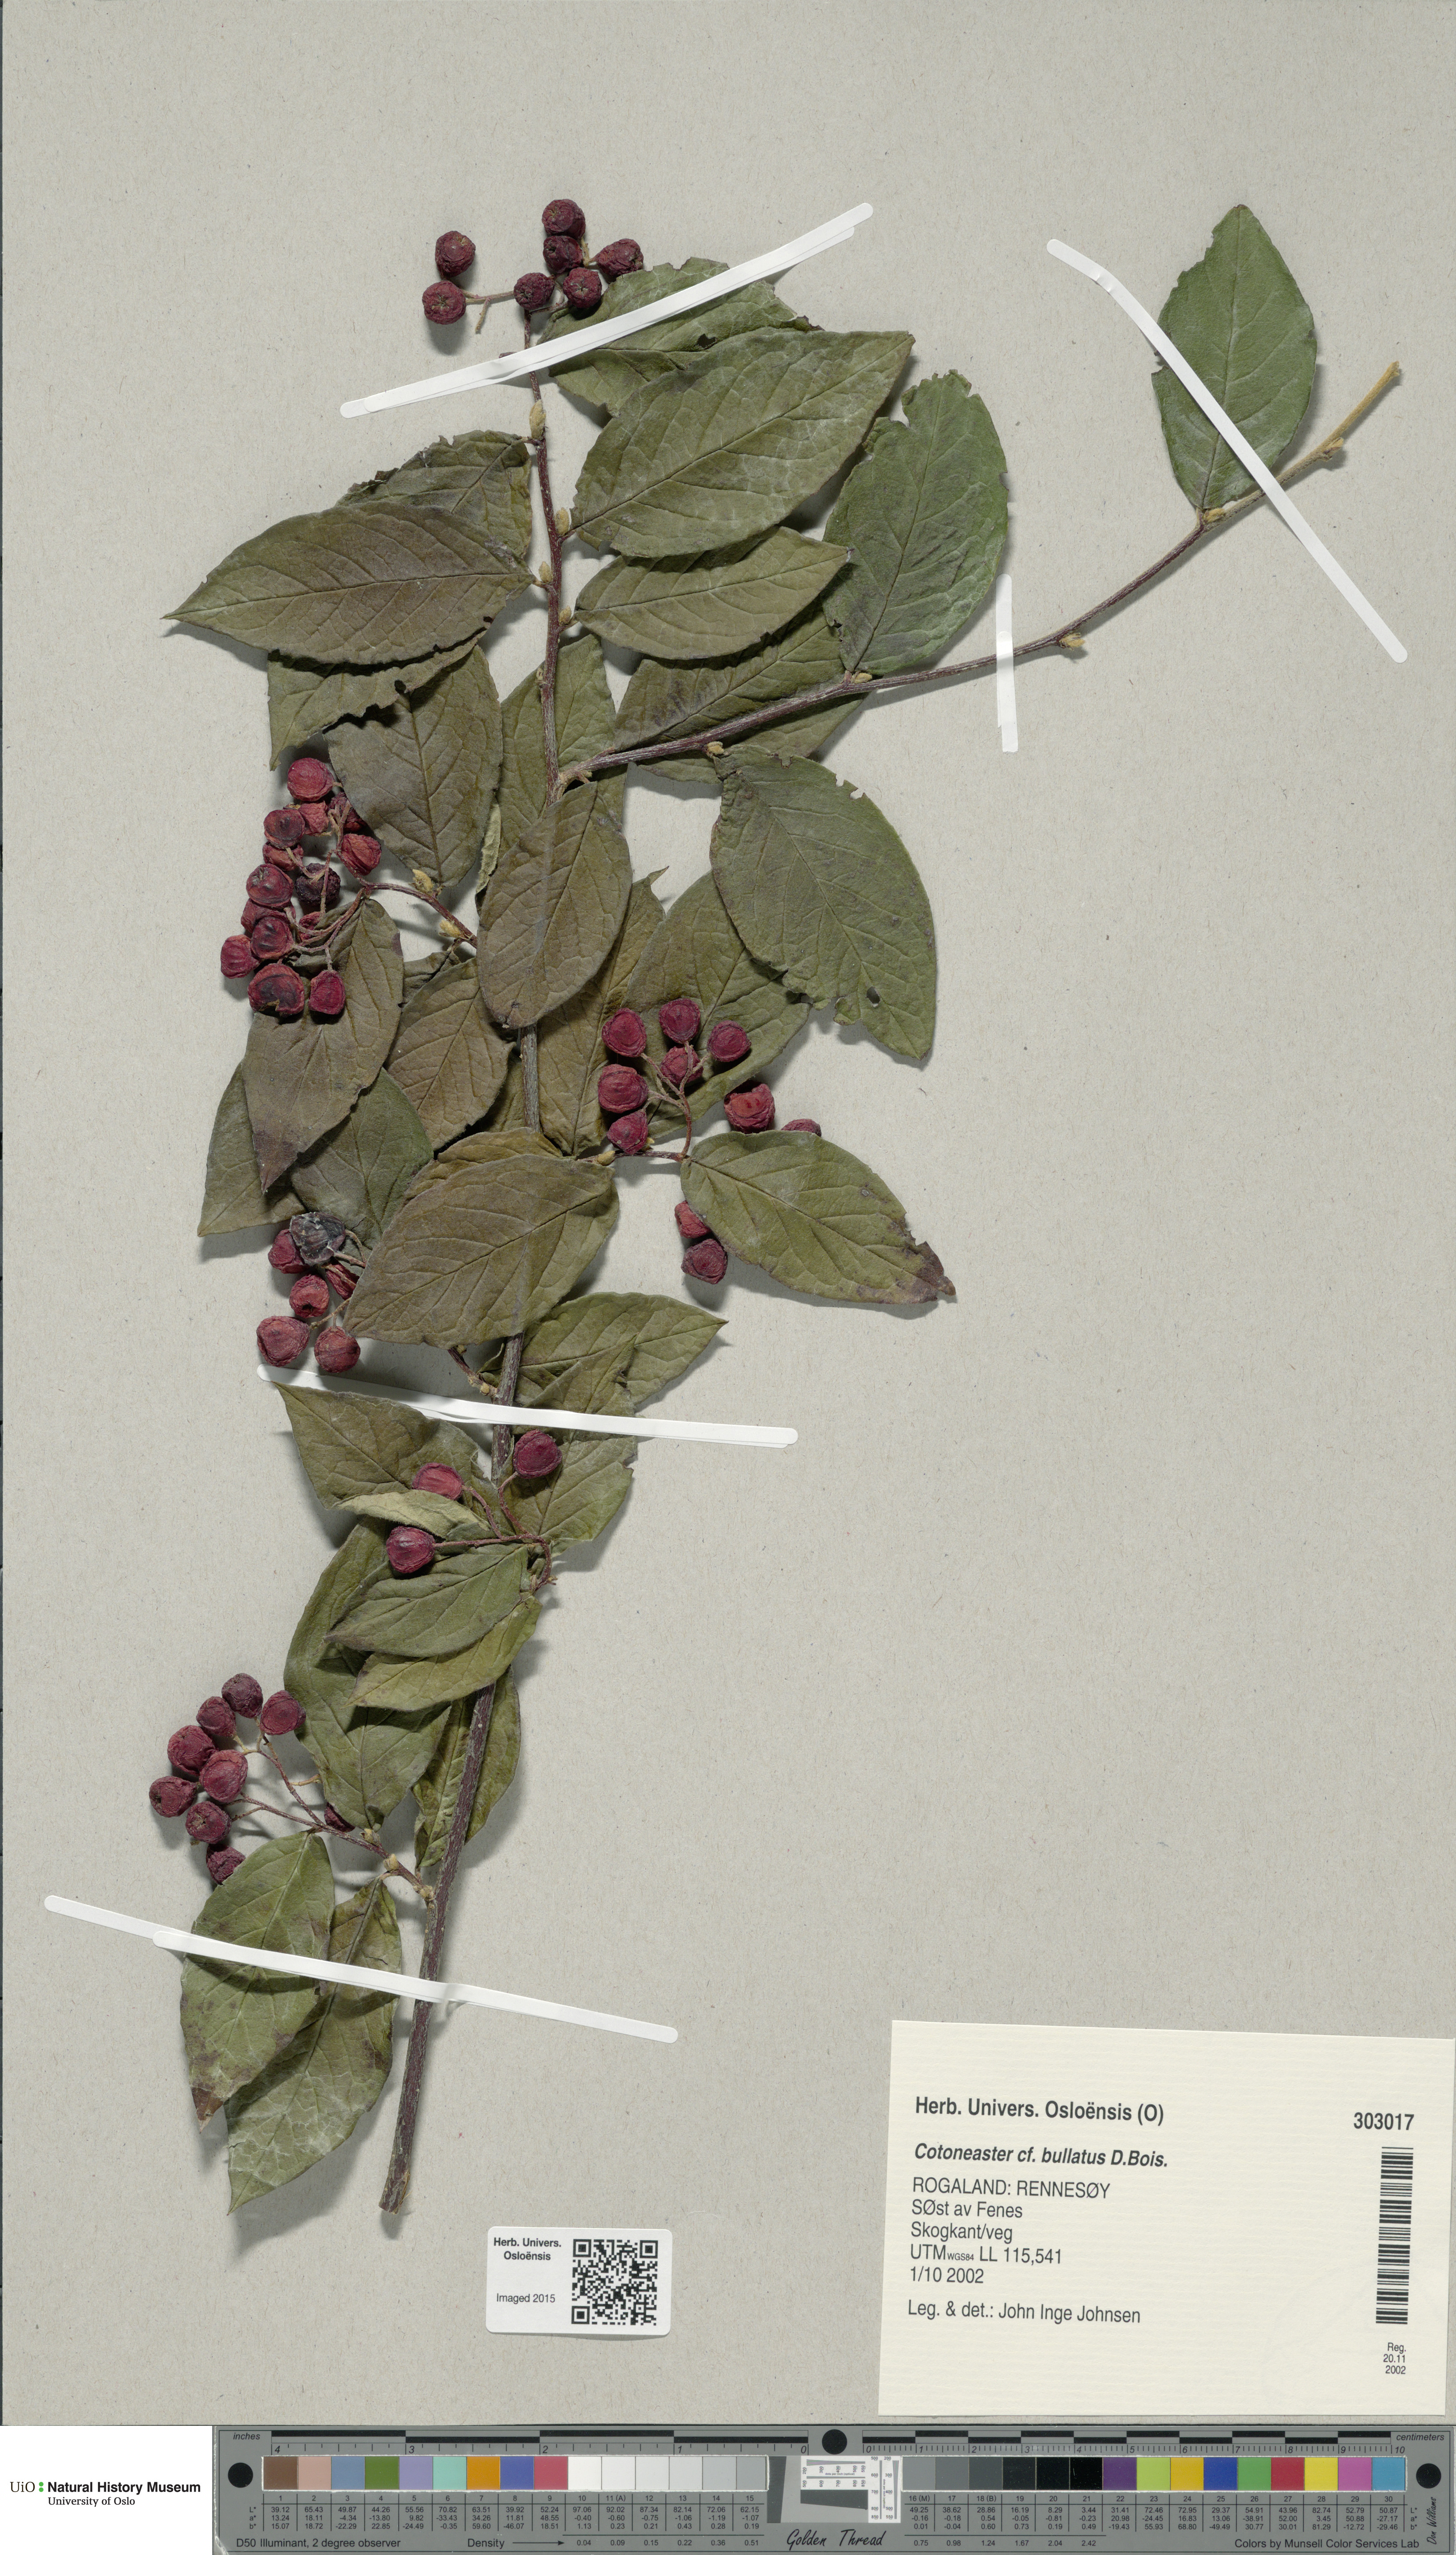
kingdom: Plantae
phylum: Tracheophyta
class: Magnoliopsida
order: Rosales
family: Rosaceae
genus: Cotoneaster
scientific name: Cotoneaster bullatus
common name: Hollyberry cotoneaster
